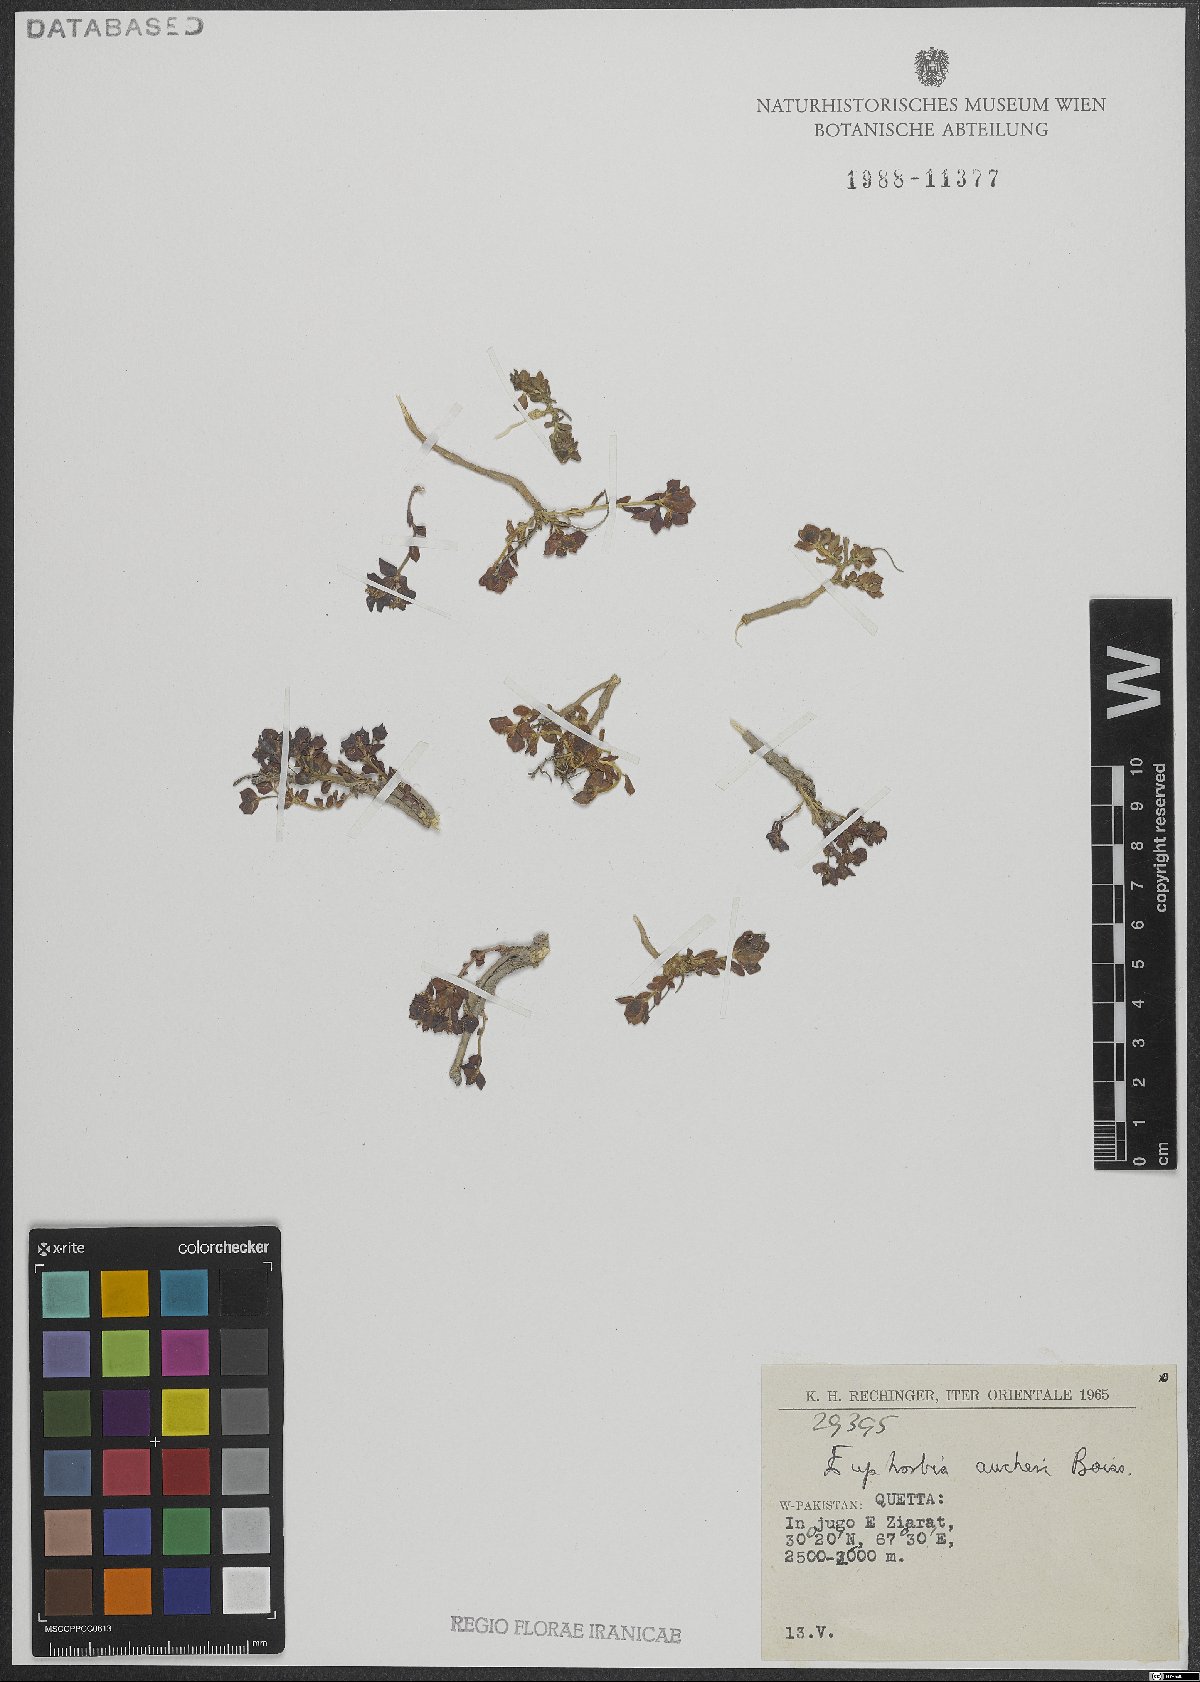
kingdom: Plantae
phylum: Tracheophyta
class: Magnoliopsida
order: Malpighiales
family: Euphorbiaceae
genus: Euphorbia
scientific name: Euphorbia aucheri
